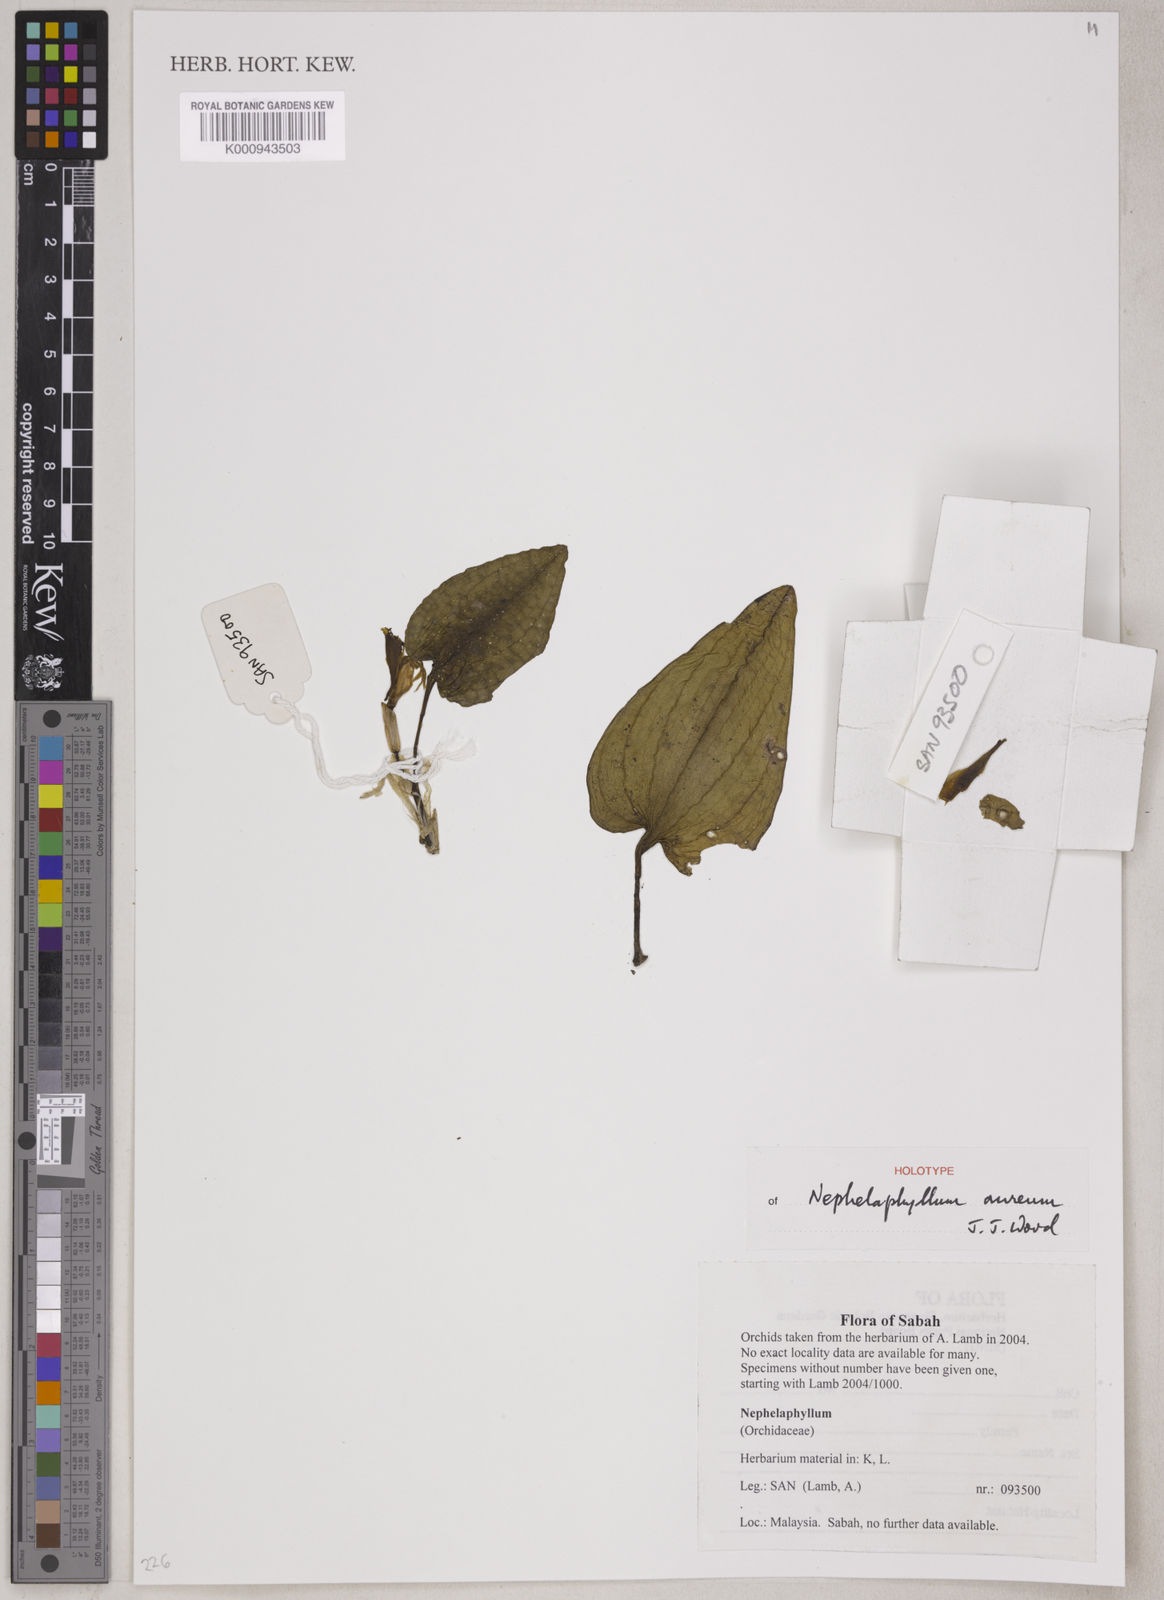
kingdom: Plantae
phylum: Tracheophyta
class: Liliopsida
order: Asparagales
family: Orchidaceae
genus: Nephelaphyllum
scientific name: Nephelaphyllum aureum
